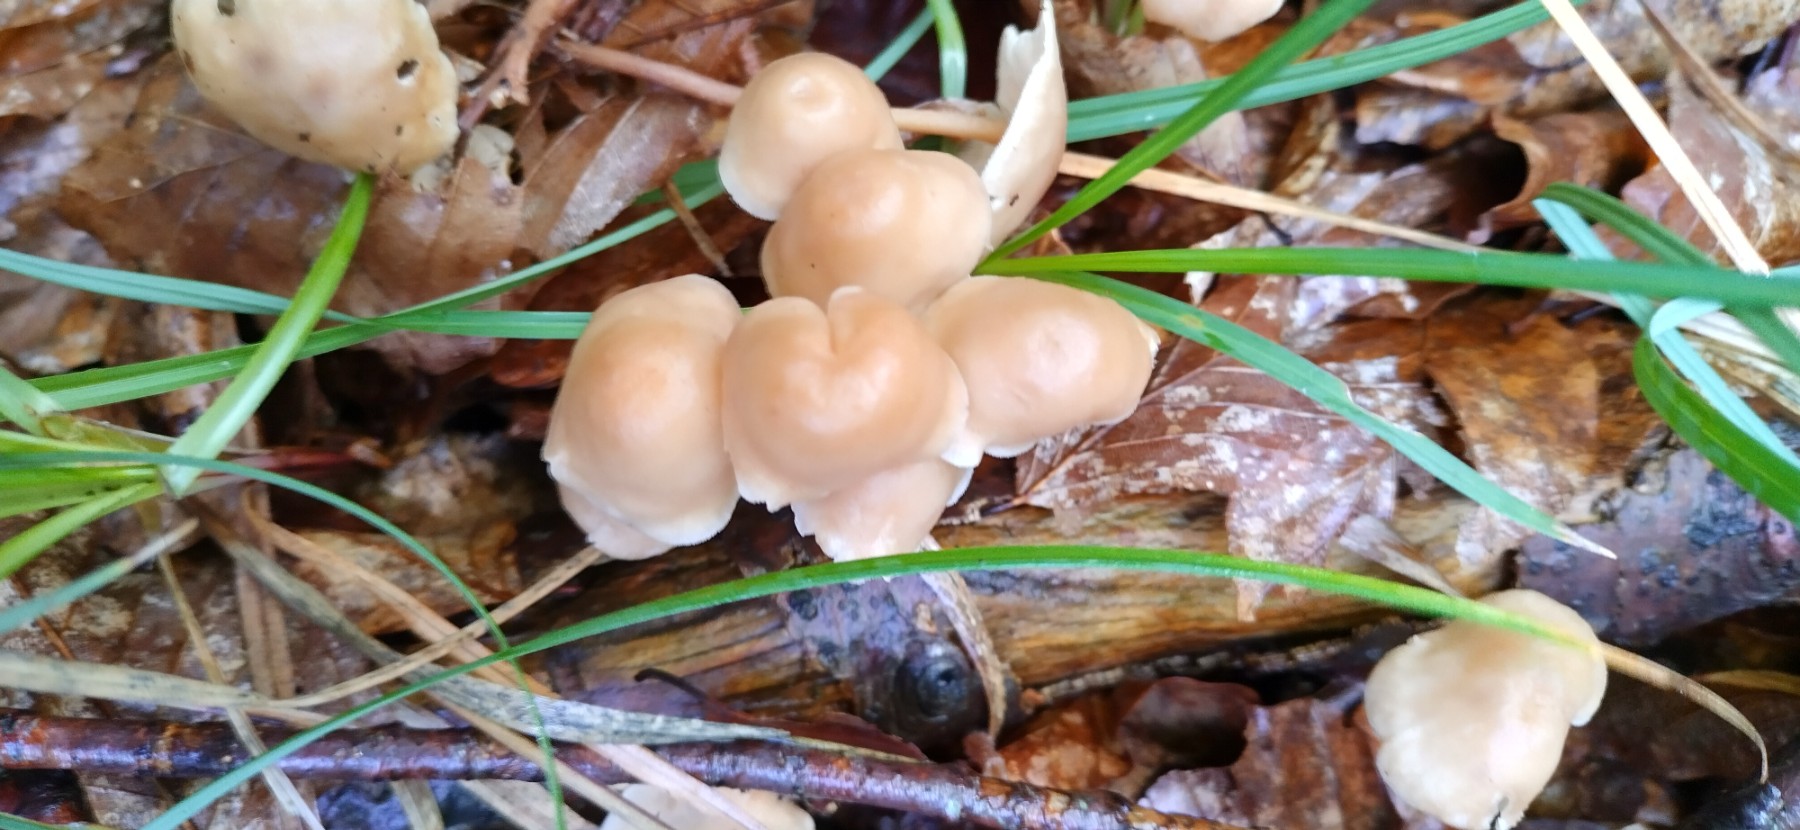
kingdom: Fungi
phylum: Basidiomycota
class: Agaricomycetes
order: Agaricales
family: Omphalotaceae
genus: Collybiopsis
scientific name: Collybiopsis confluens
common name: knippe-fladhat
